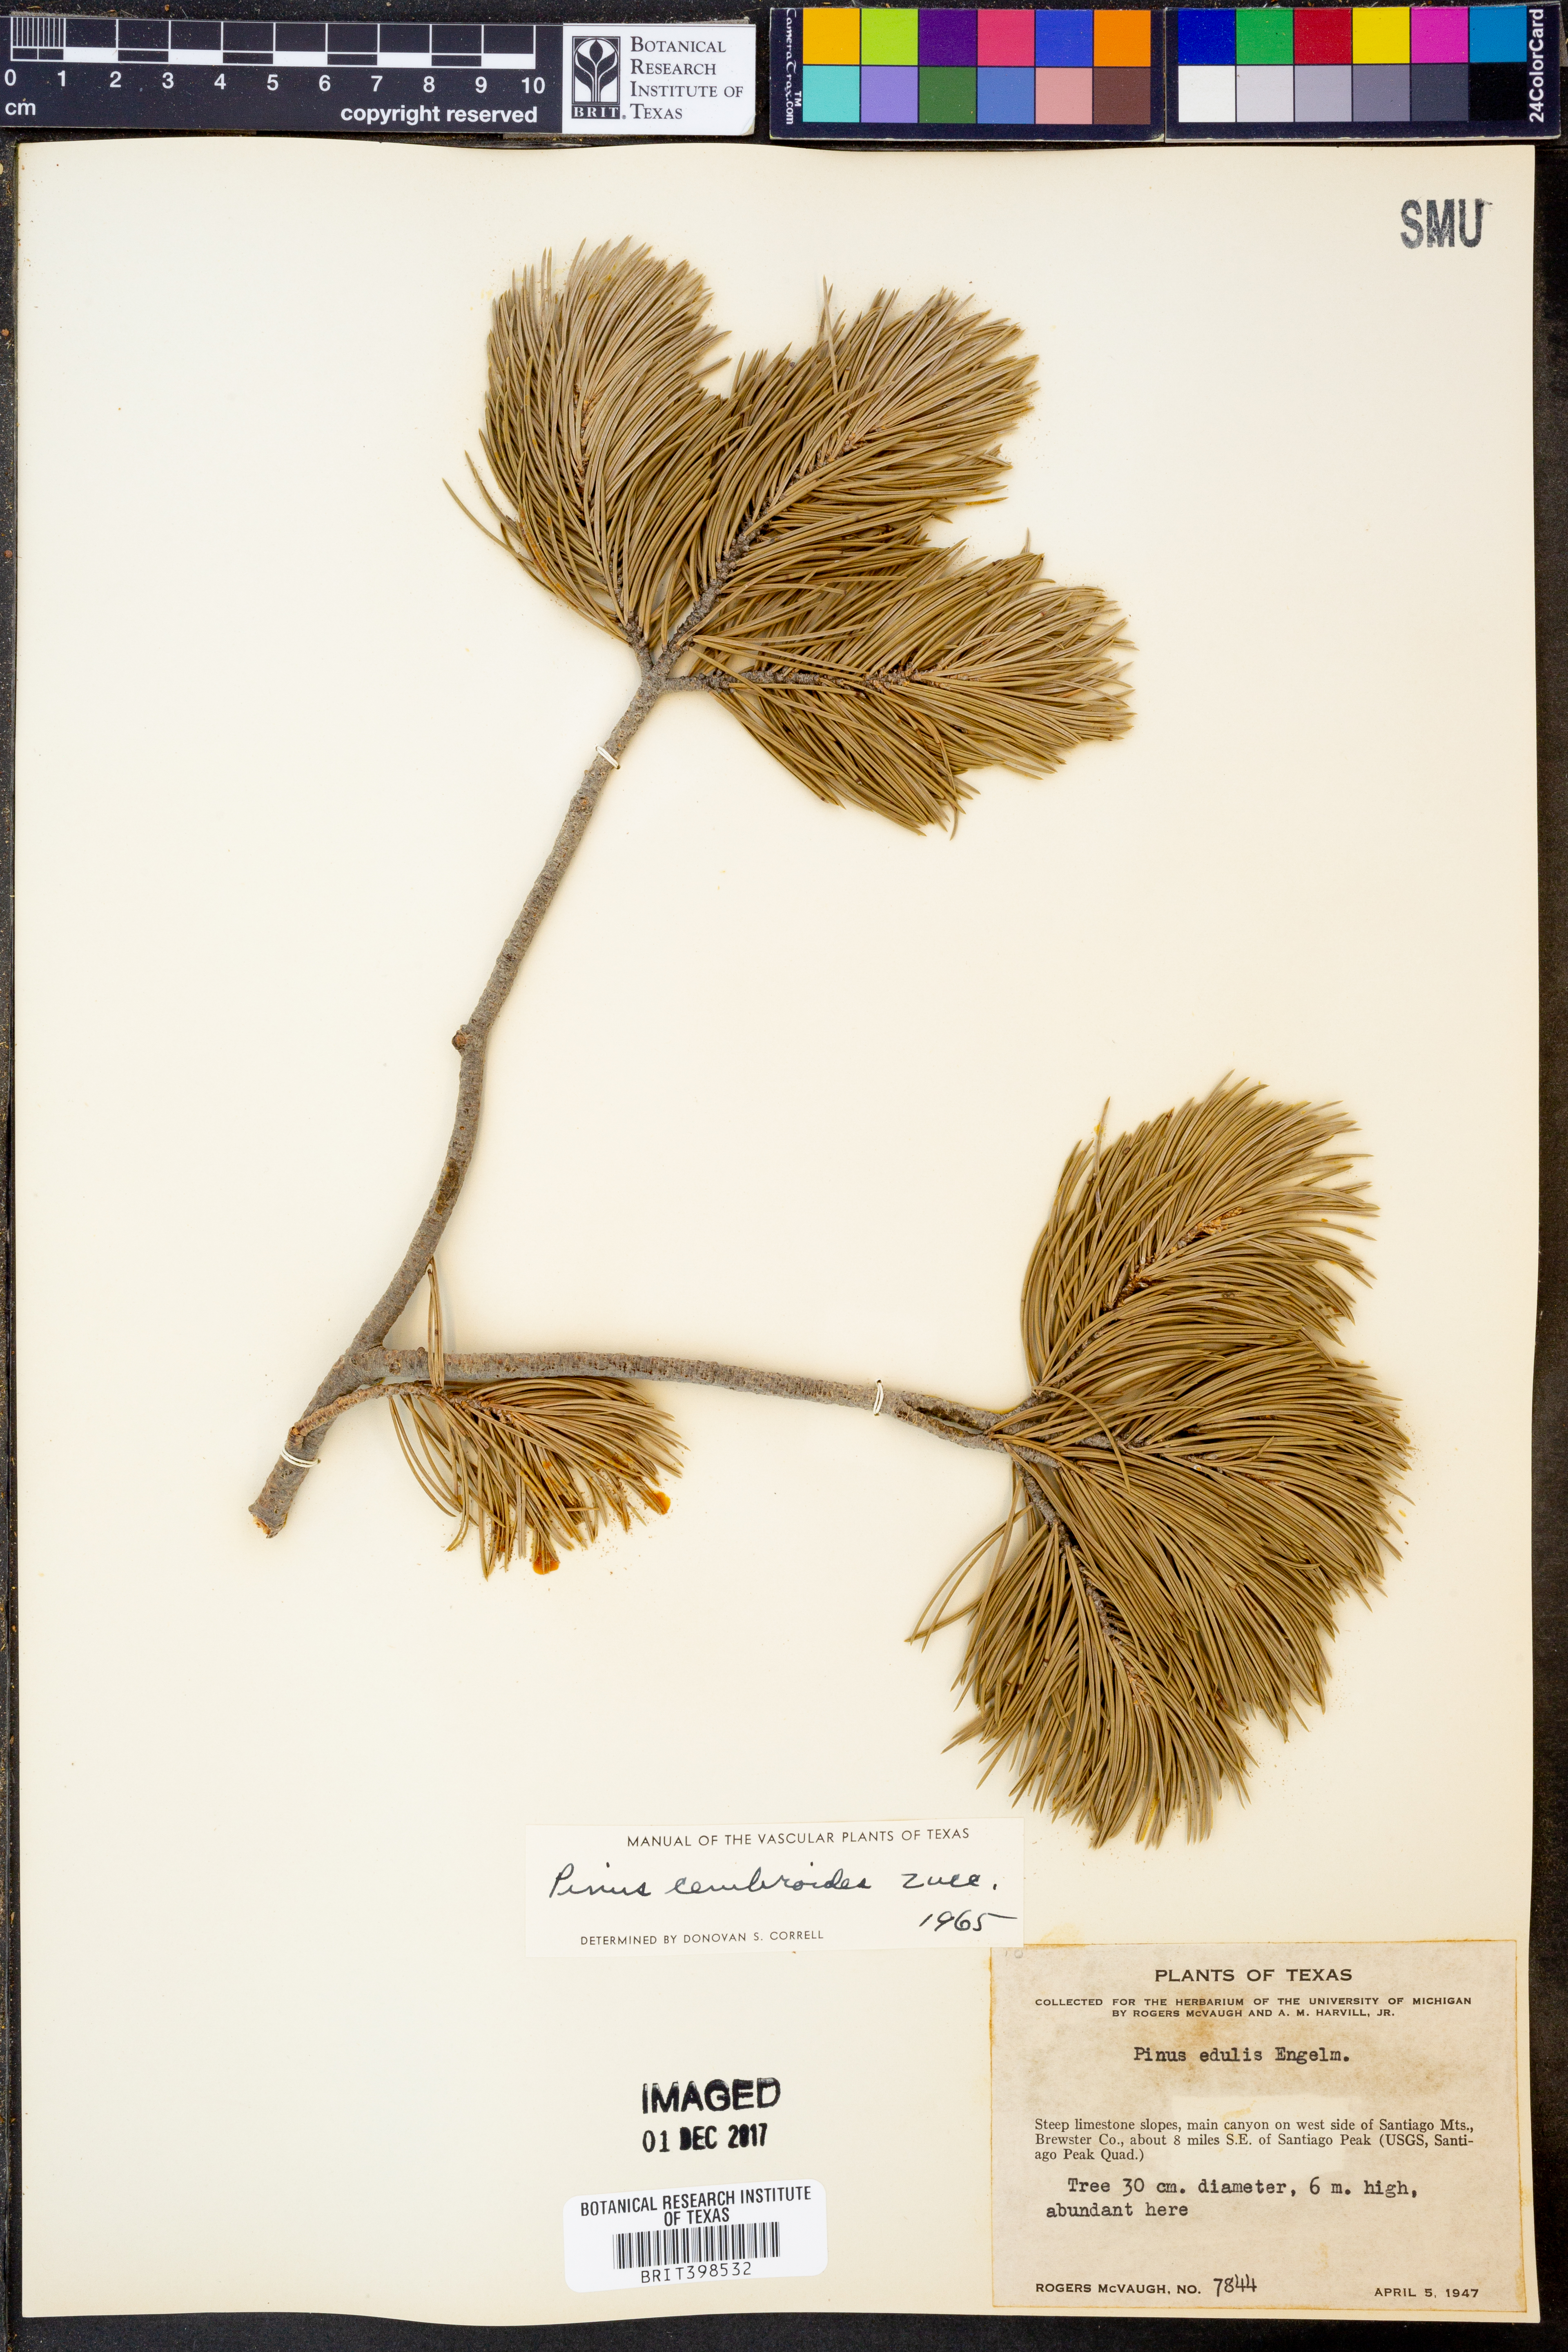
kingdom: Plantae
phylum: Tracheophyta
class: Pinopsida
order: Pinales
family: Pinaceae
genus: Pinus
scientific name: Pinus cembroides
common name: Mexican nut pine
